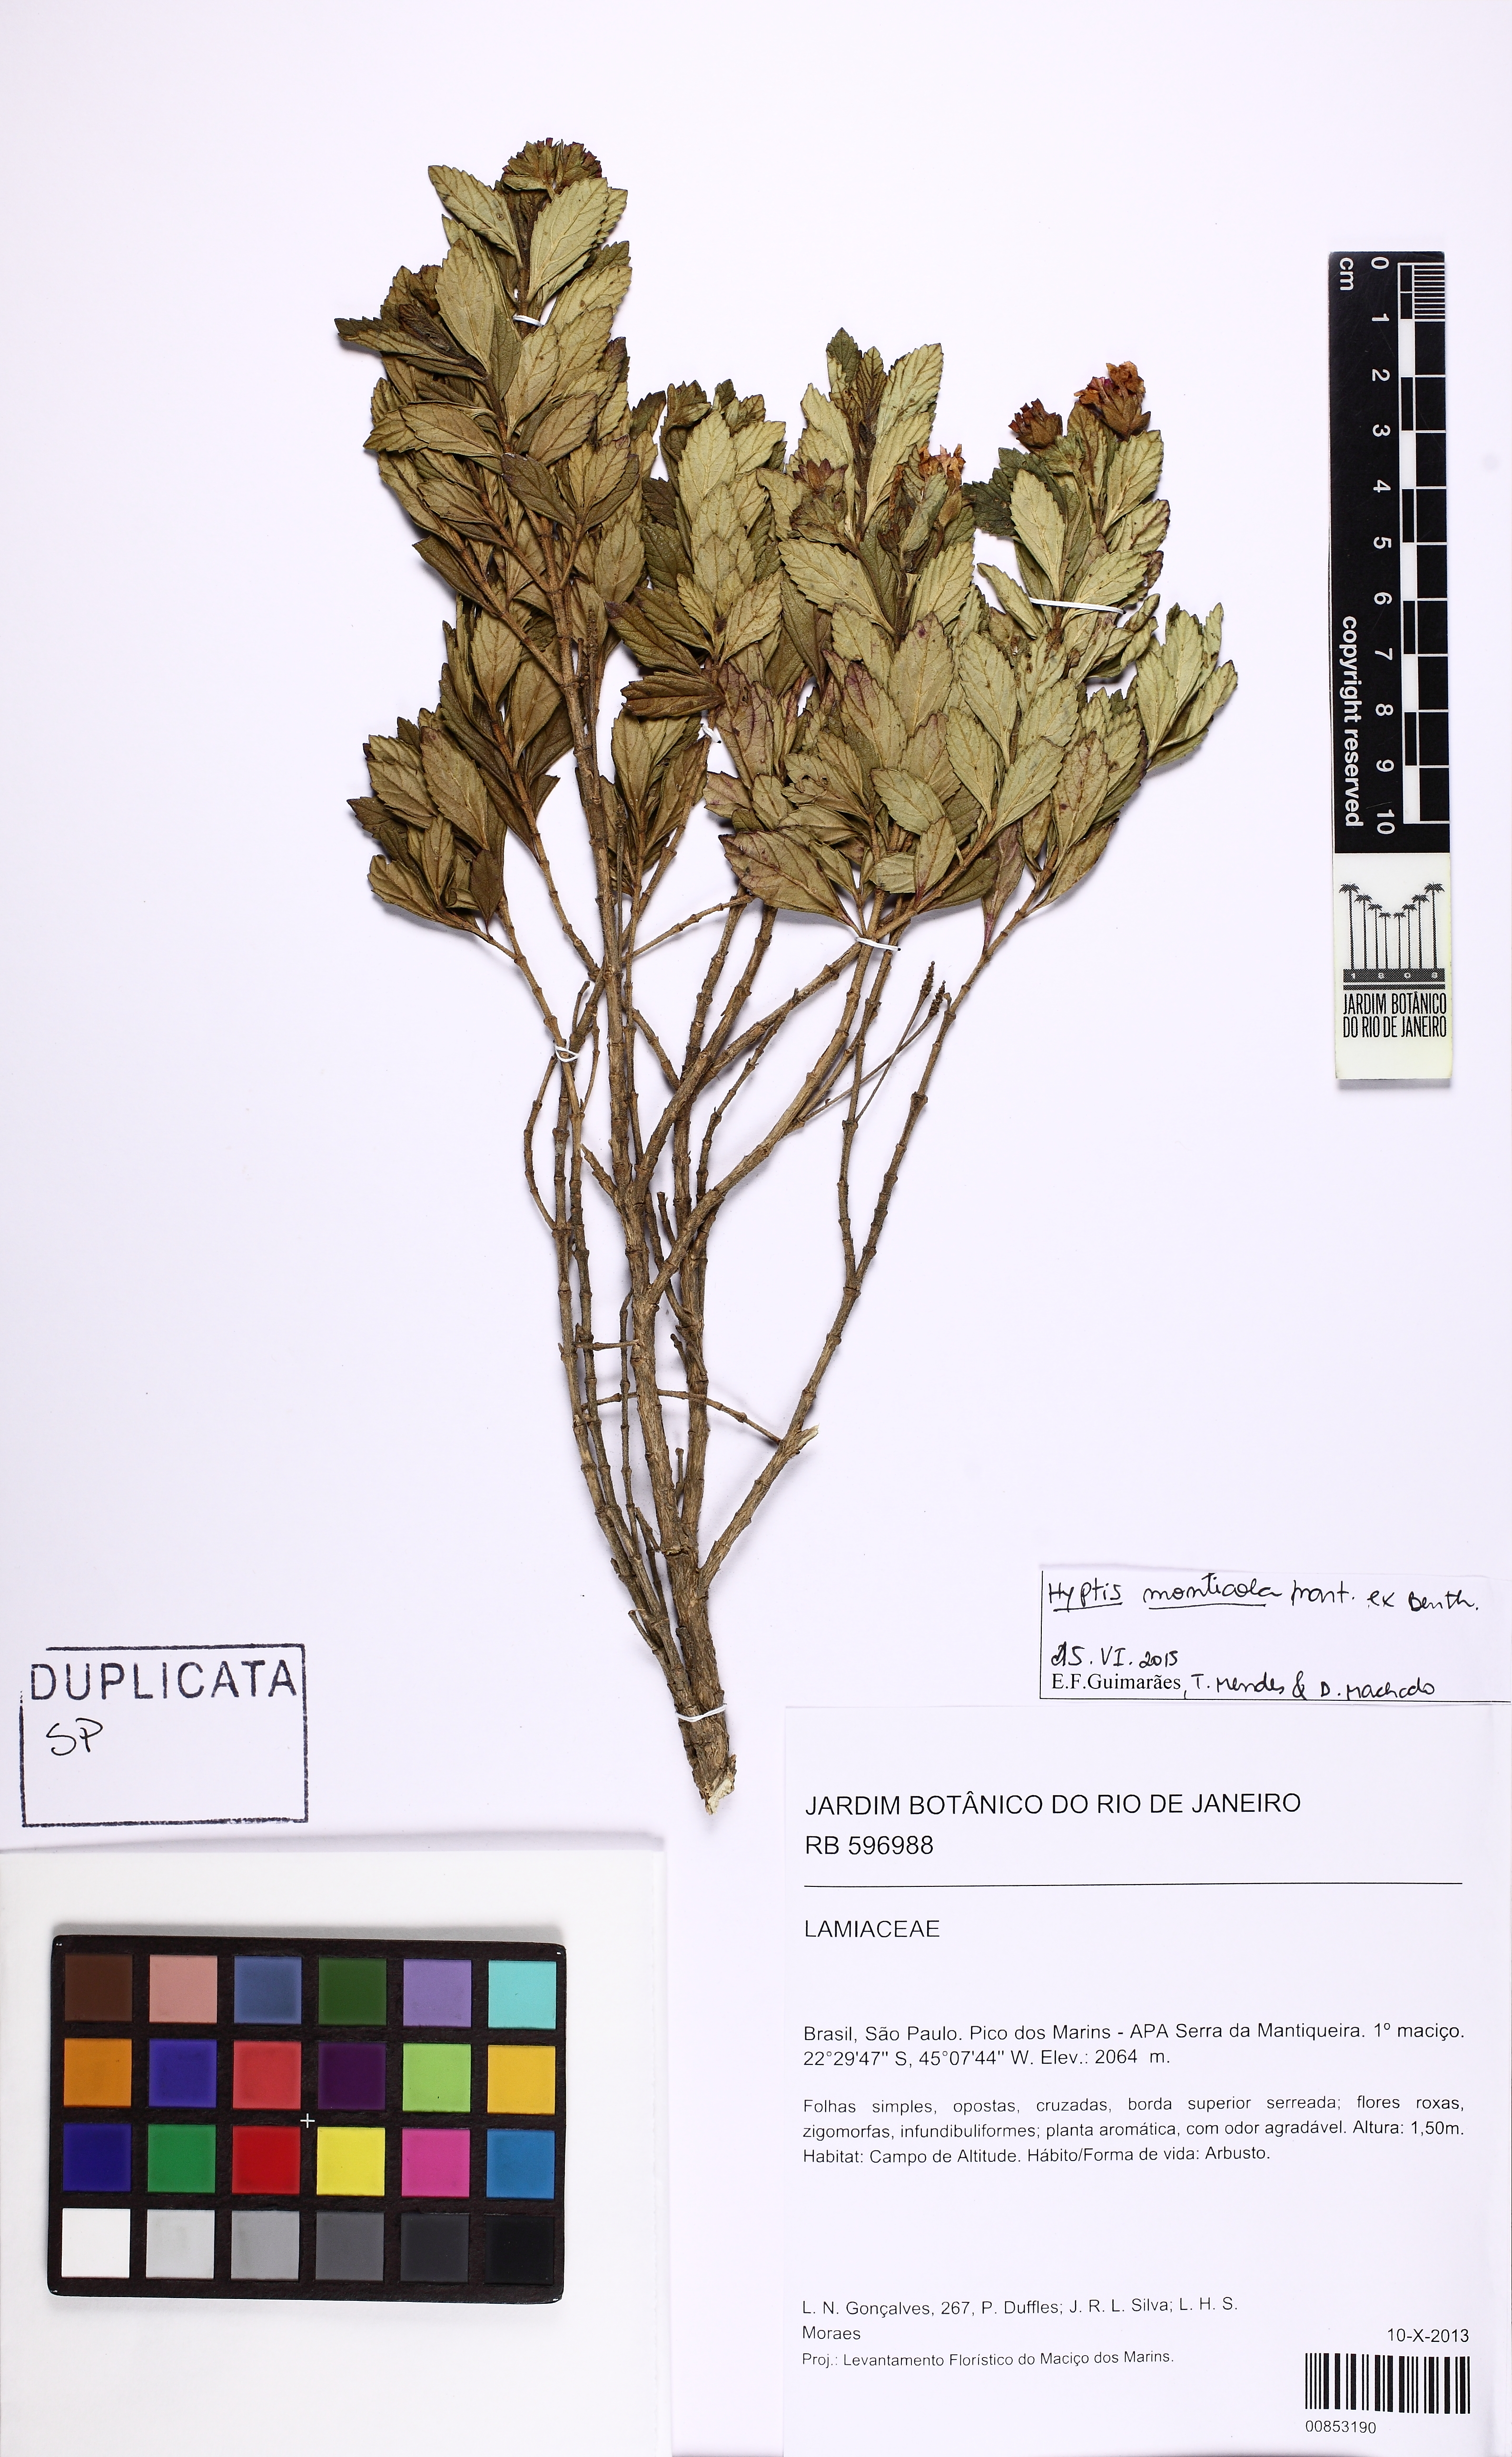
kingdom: Plantae
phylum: Tracheophyta
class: Magnoliopsida
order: Lamiales
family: Lamiaceae
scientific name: Lamiaceae
